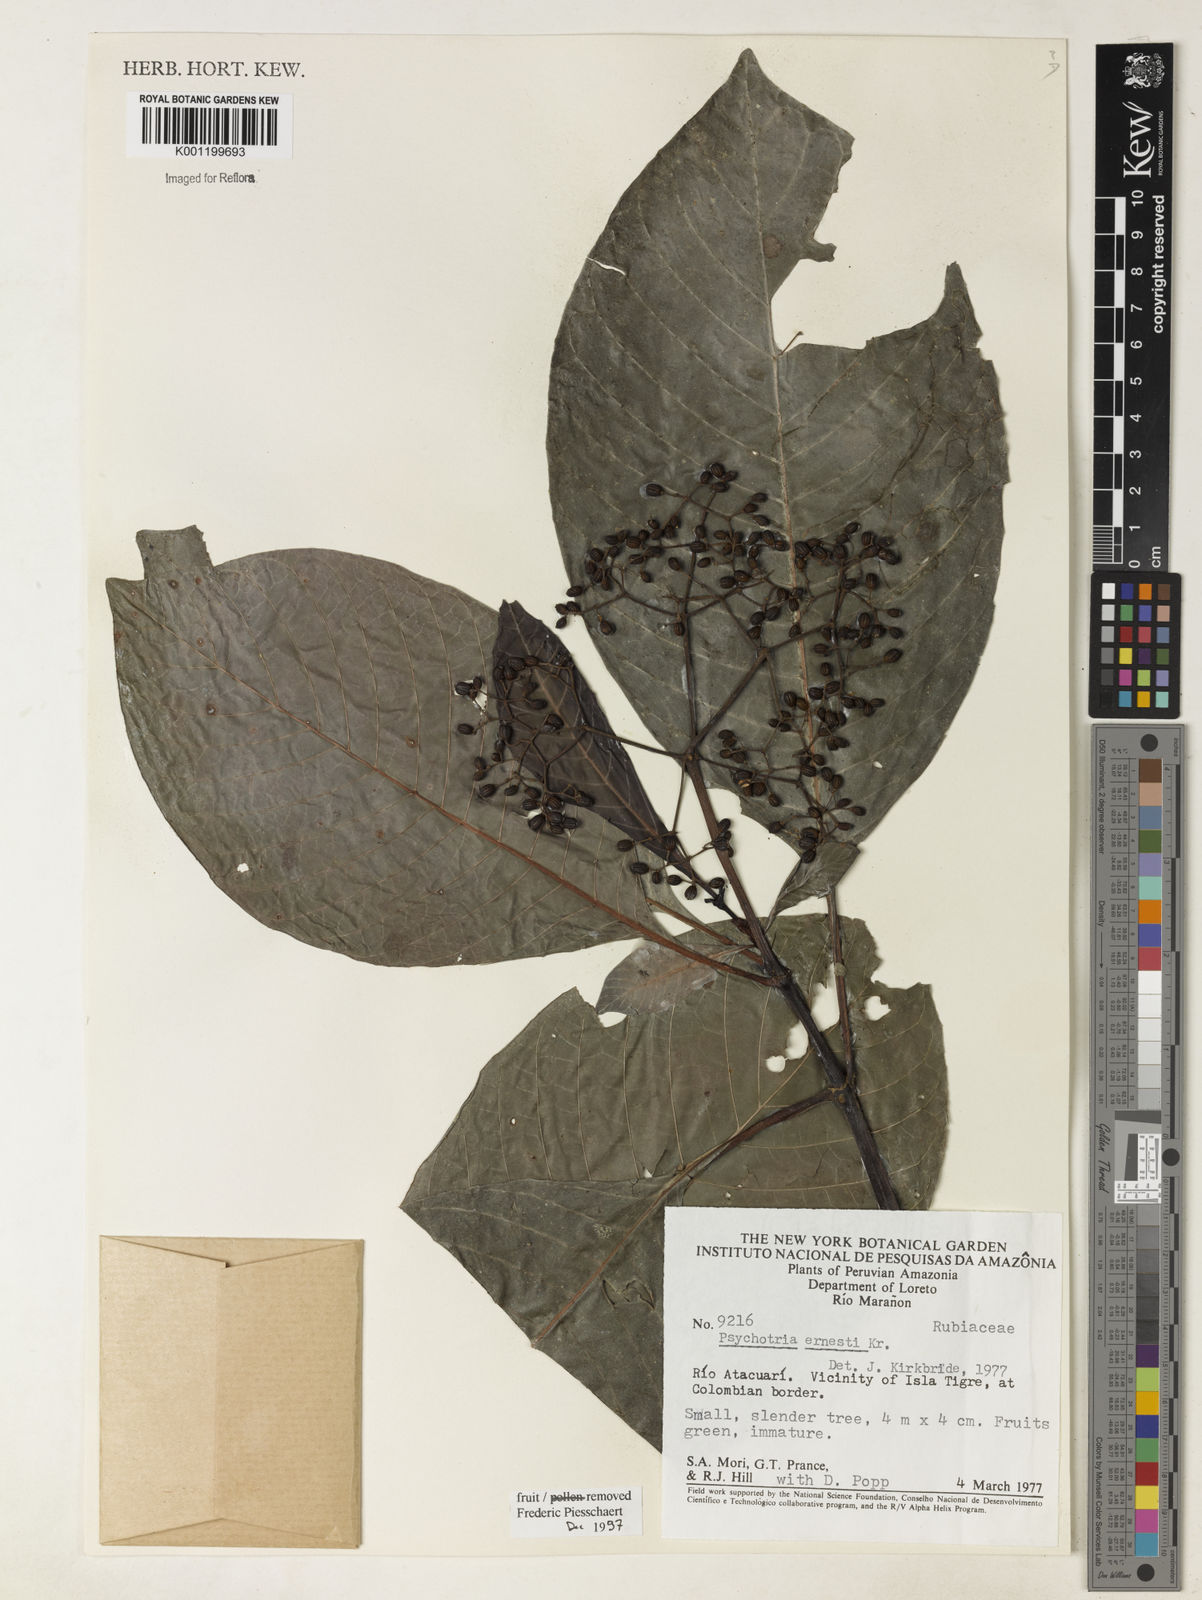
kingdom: Plantae
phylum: Tracheophyta
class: Magnoliopsida
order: Gentianales
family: Rubiaceae
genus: Psychotria
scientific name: Psychotria guianensis
